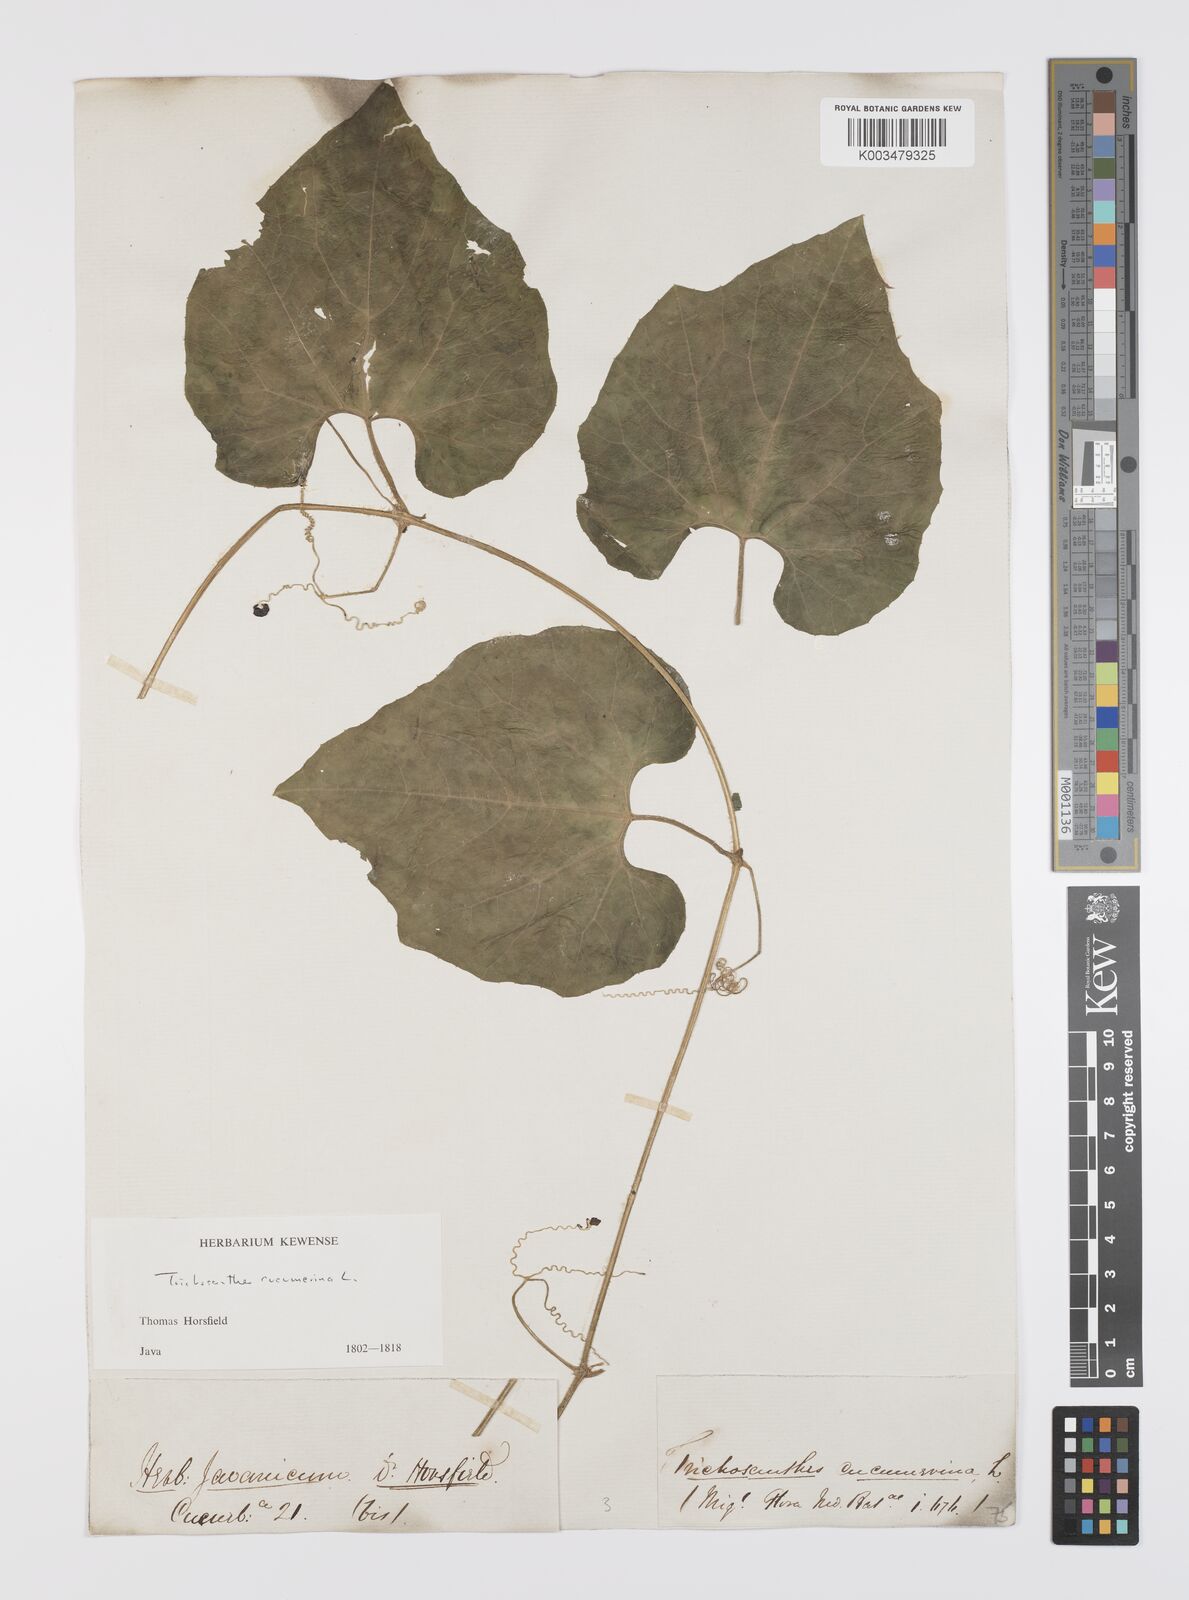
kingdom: Plantae
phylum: Tracheophyta
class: Magnoliopsida
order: Cucurbitales
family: Cucurbitaceae
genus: Trichosanthes
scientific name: Trichosanthes cucumerina
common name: Snakegourd
